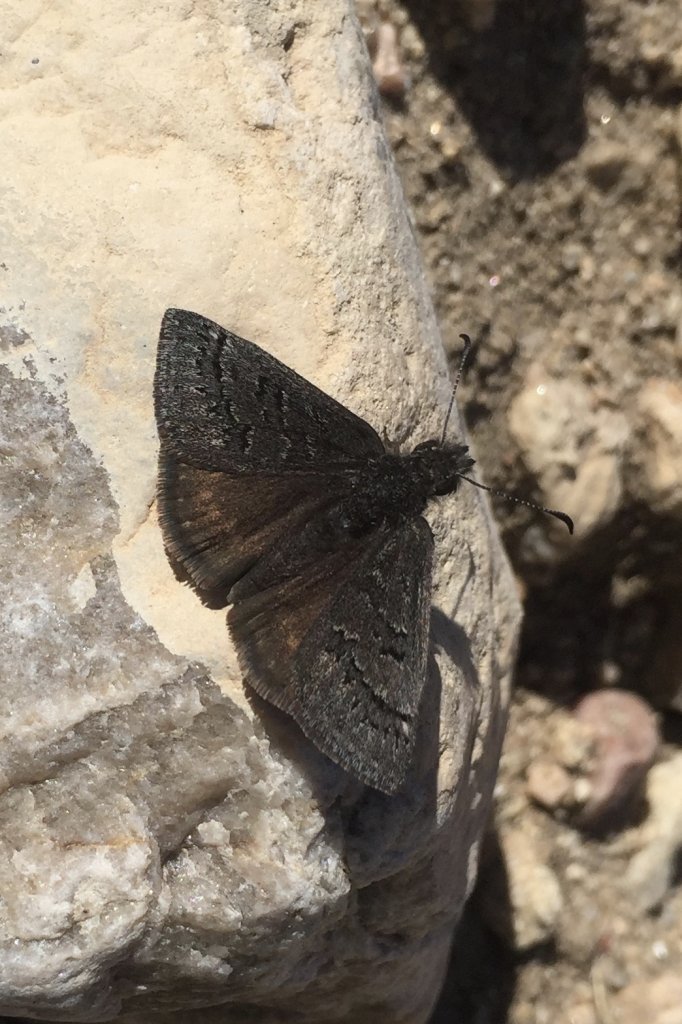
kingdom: Animalia
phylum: Arthropoda
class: Insecta
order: Lepidoptera
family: Hesperiidae
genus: Erynnis
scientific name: Erynnis brizo
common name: Sleepy Duskywing
